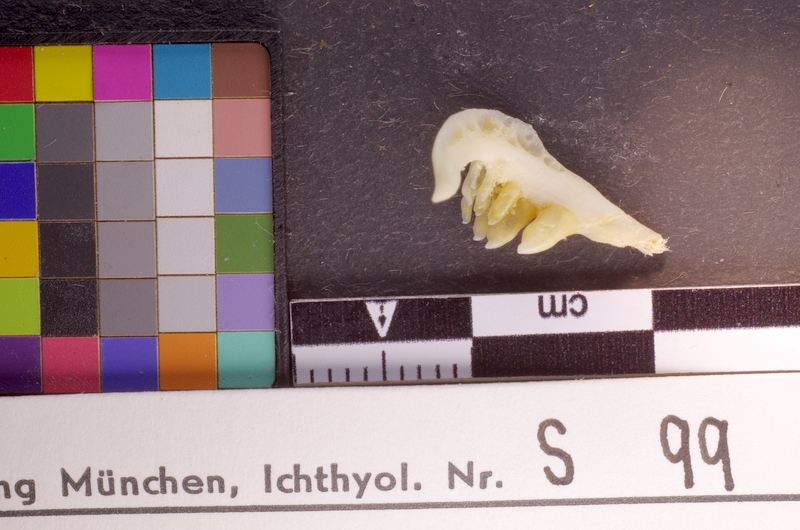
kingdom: Animalia
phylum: Chordata
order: Cypriniformes
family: Cyprinidae
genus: Barbodes
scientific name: Barbodes lateristriga
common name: Spanner barb
